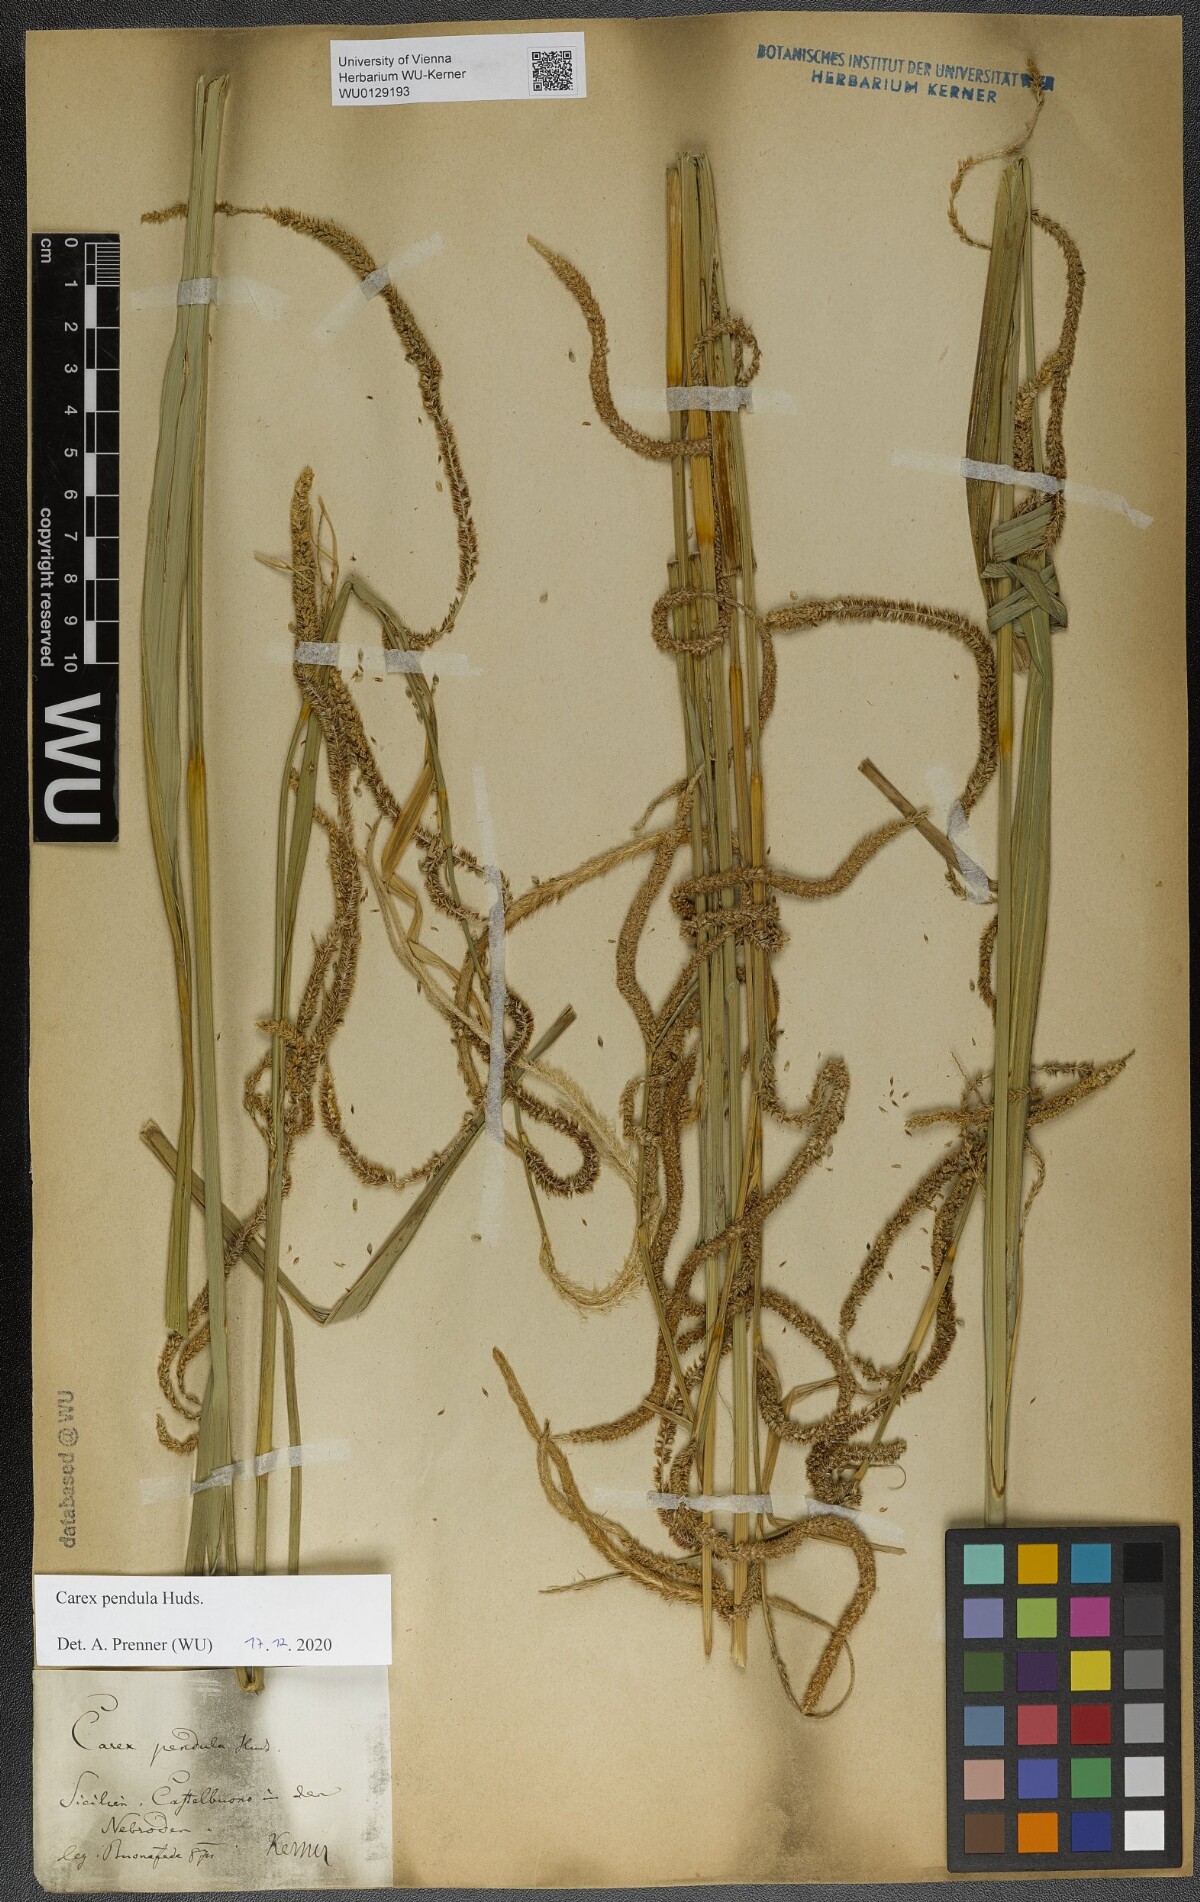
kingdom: Plantae
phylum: Tracheophyta
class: Liliopsida
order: Poales
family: Cyperaceae
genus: Carex
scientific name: Carex pendula
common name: Pendulous sedge
